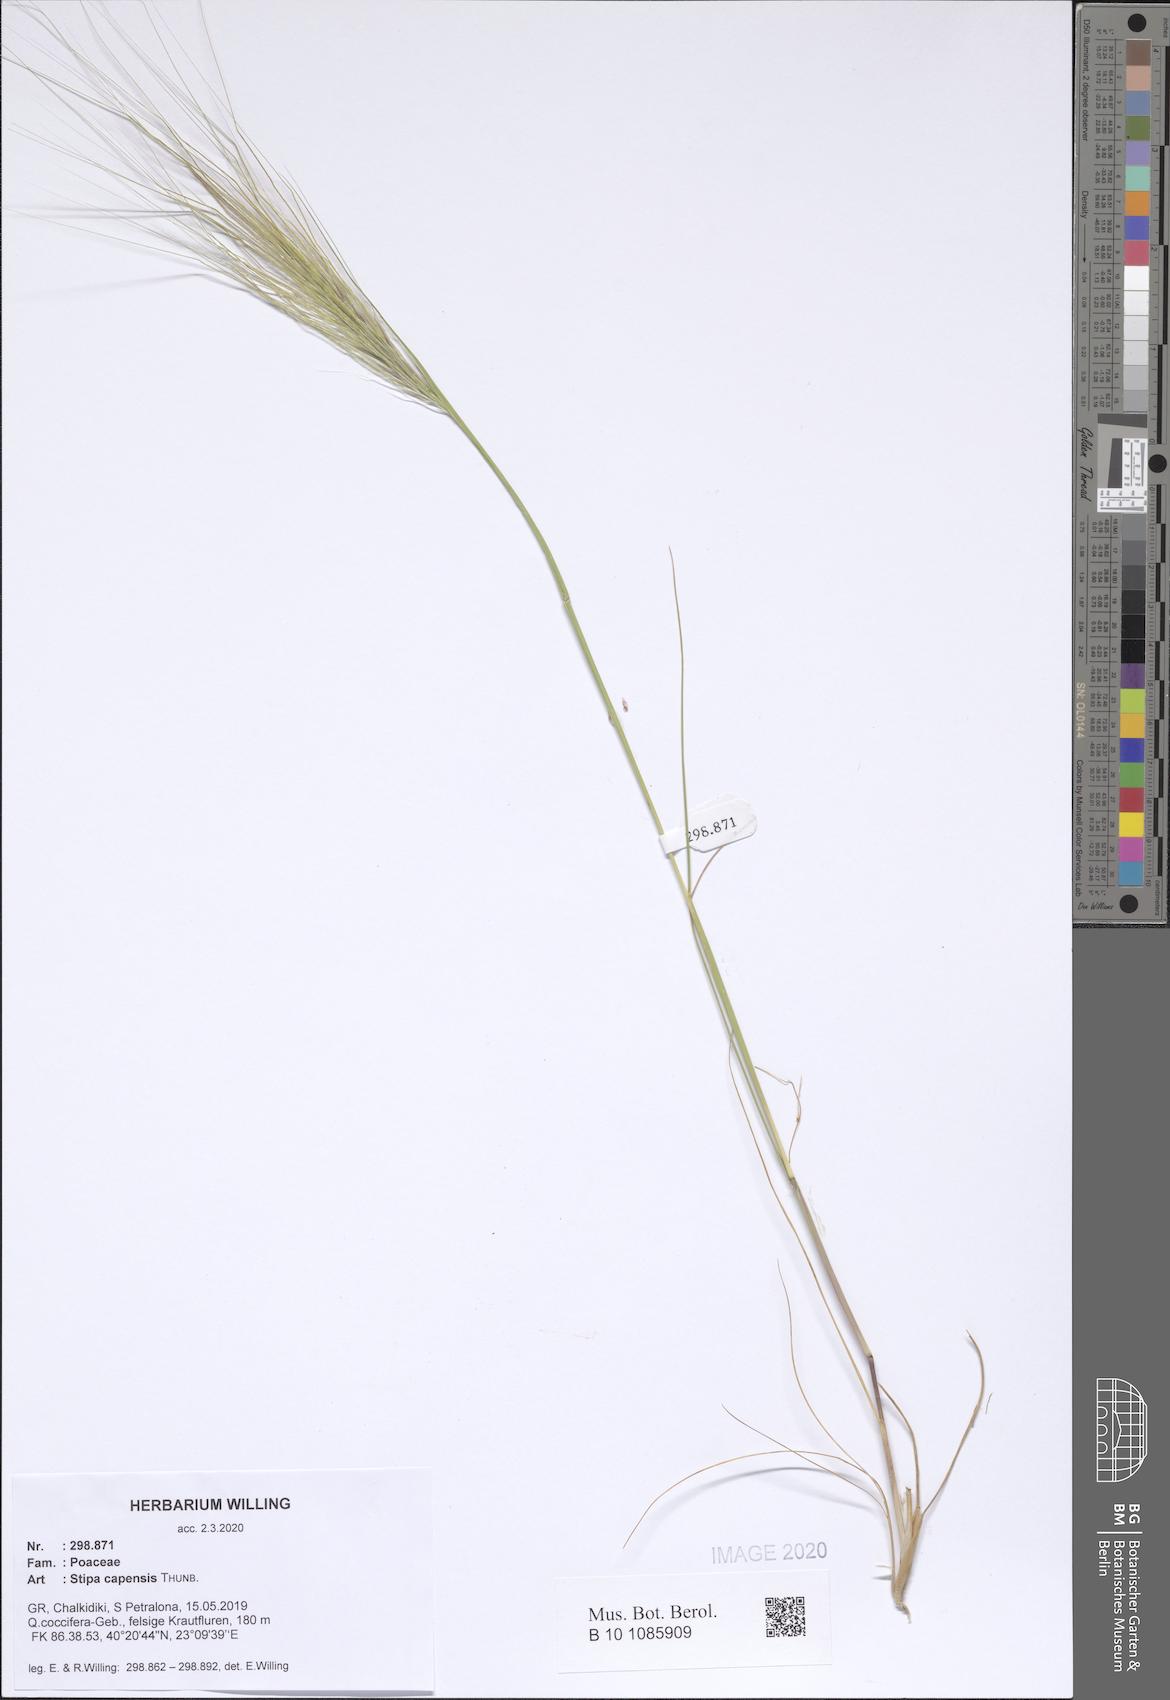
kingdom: Plantae
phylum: Tracheophyta
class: Liliopsida
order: Poales
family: Poaceae
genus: Stipellula
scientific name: Stipellula capensis
